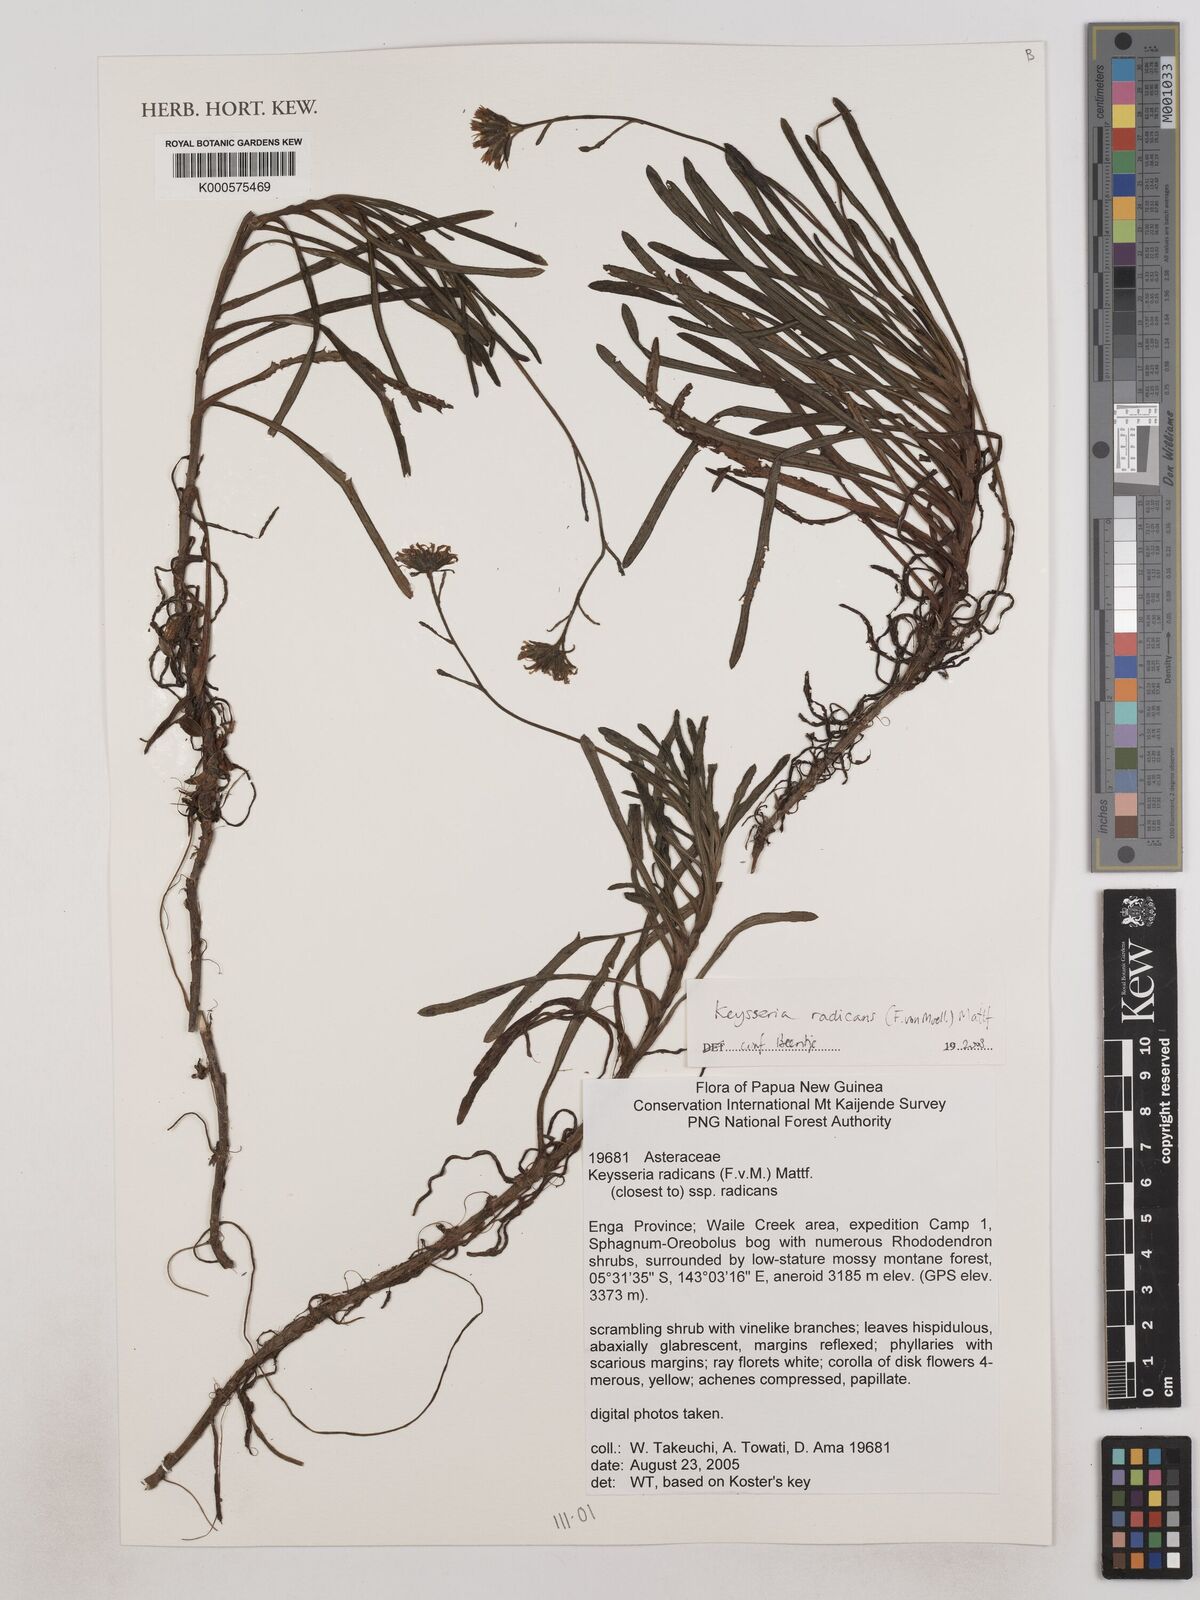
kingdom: Plantae
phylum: Tracheophyta
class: Magnoliopsida
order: Asterales
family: Asteraceae
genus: Keysseria
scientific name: Keysseria radicans
